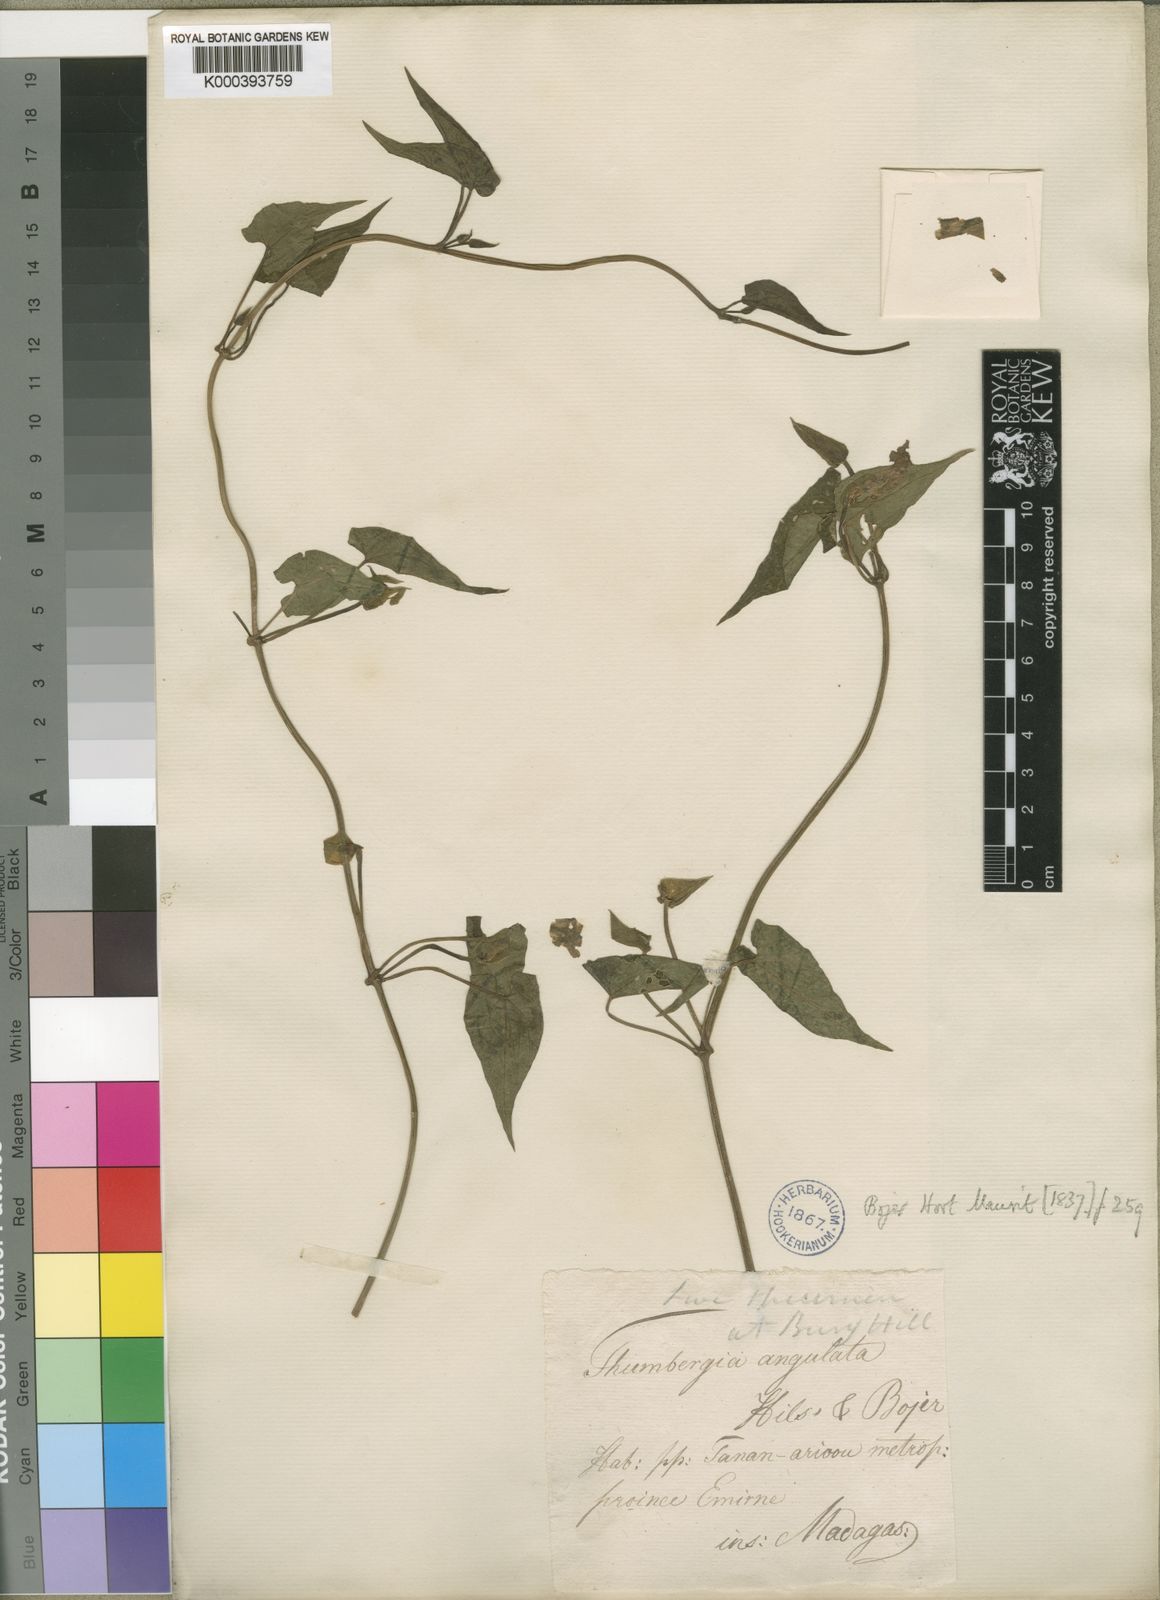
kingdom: Plantae
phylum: Tracheophyta
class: Magnoliopsida
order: Lamiales
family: Acanthaceae
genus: Thunbergia
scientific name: Thunbergia
